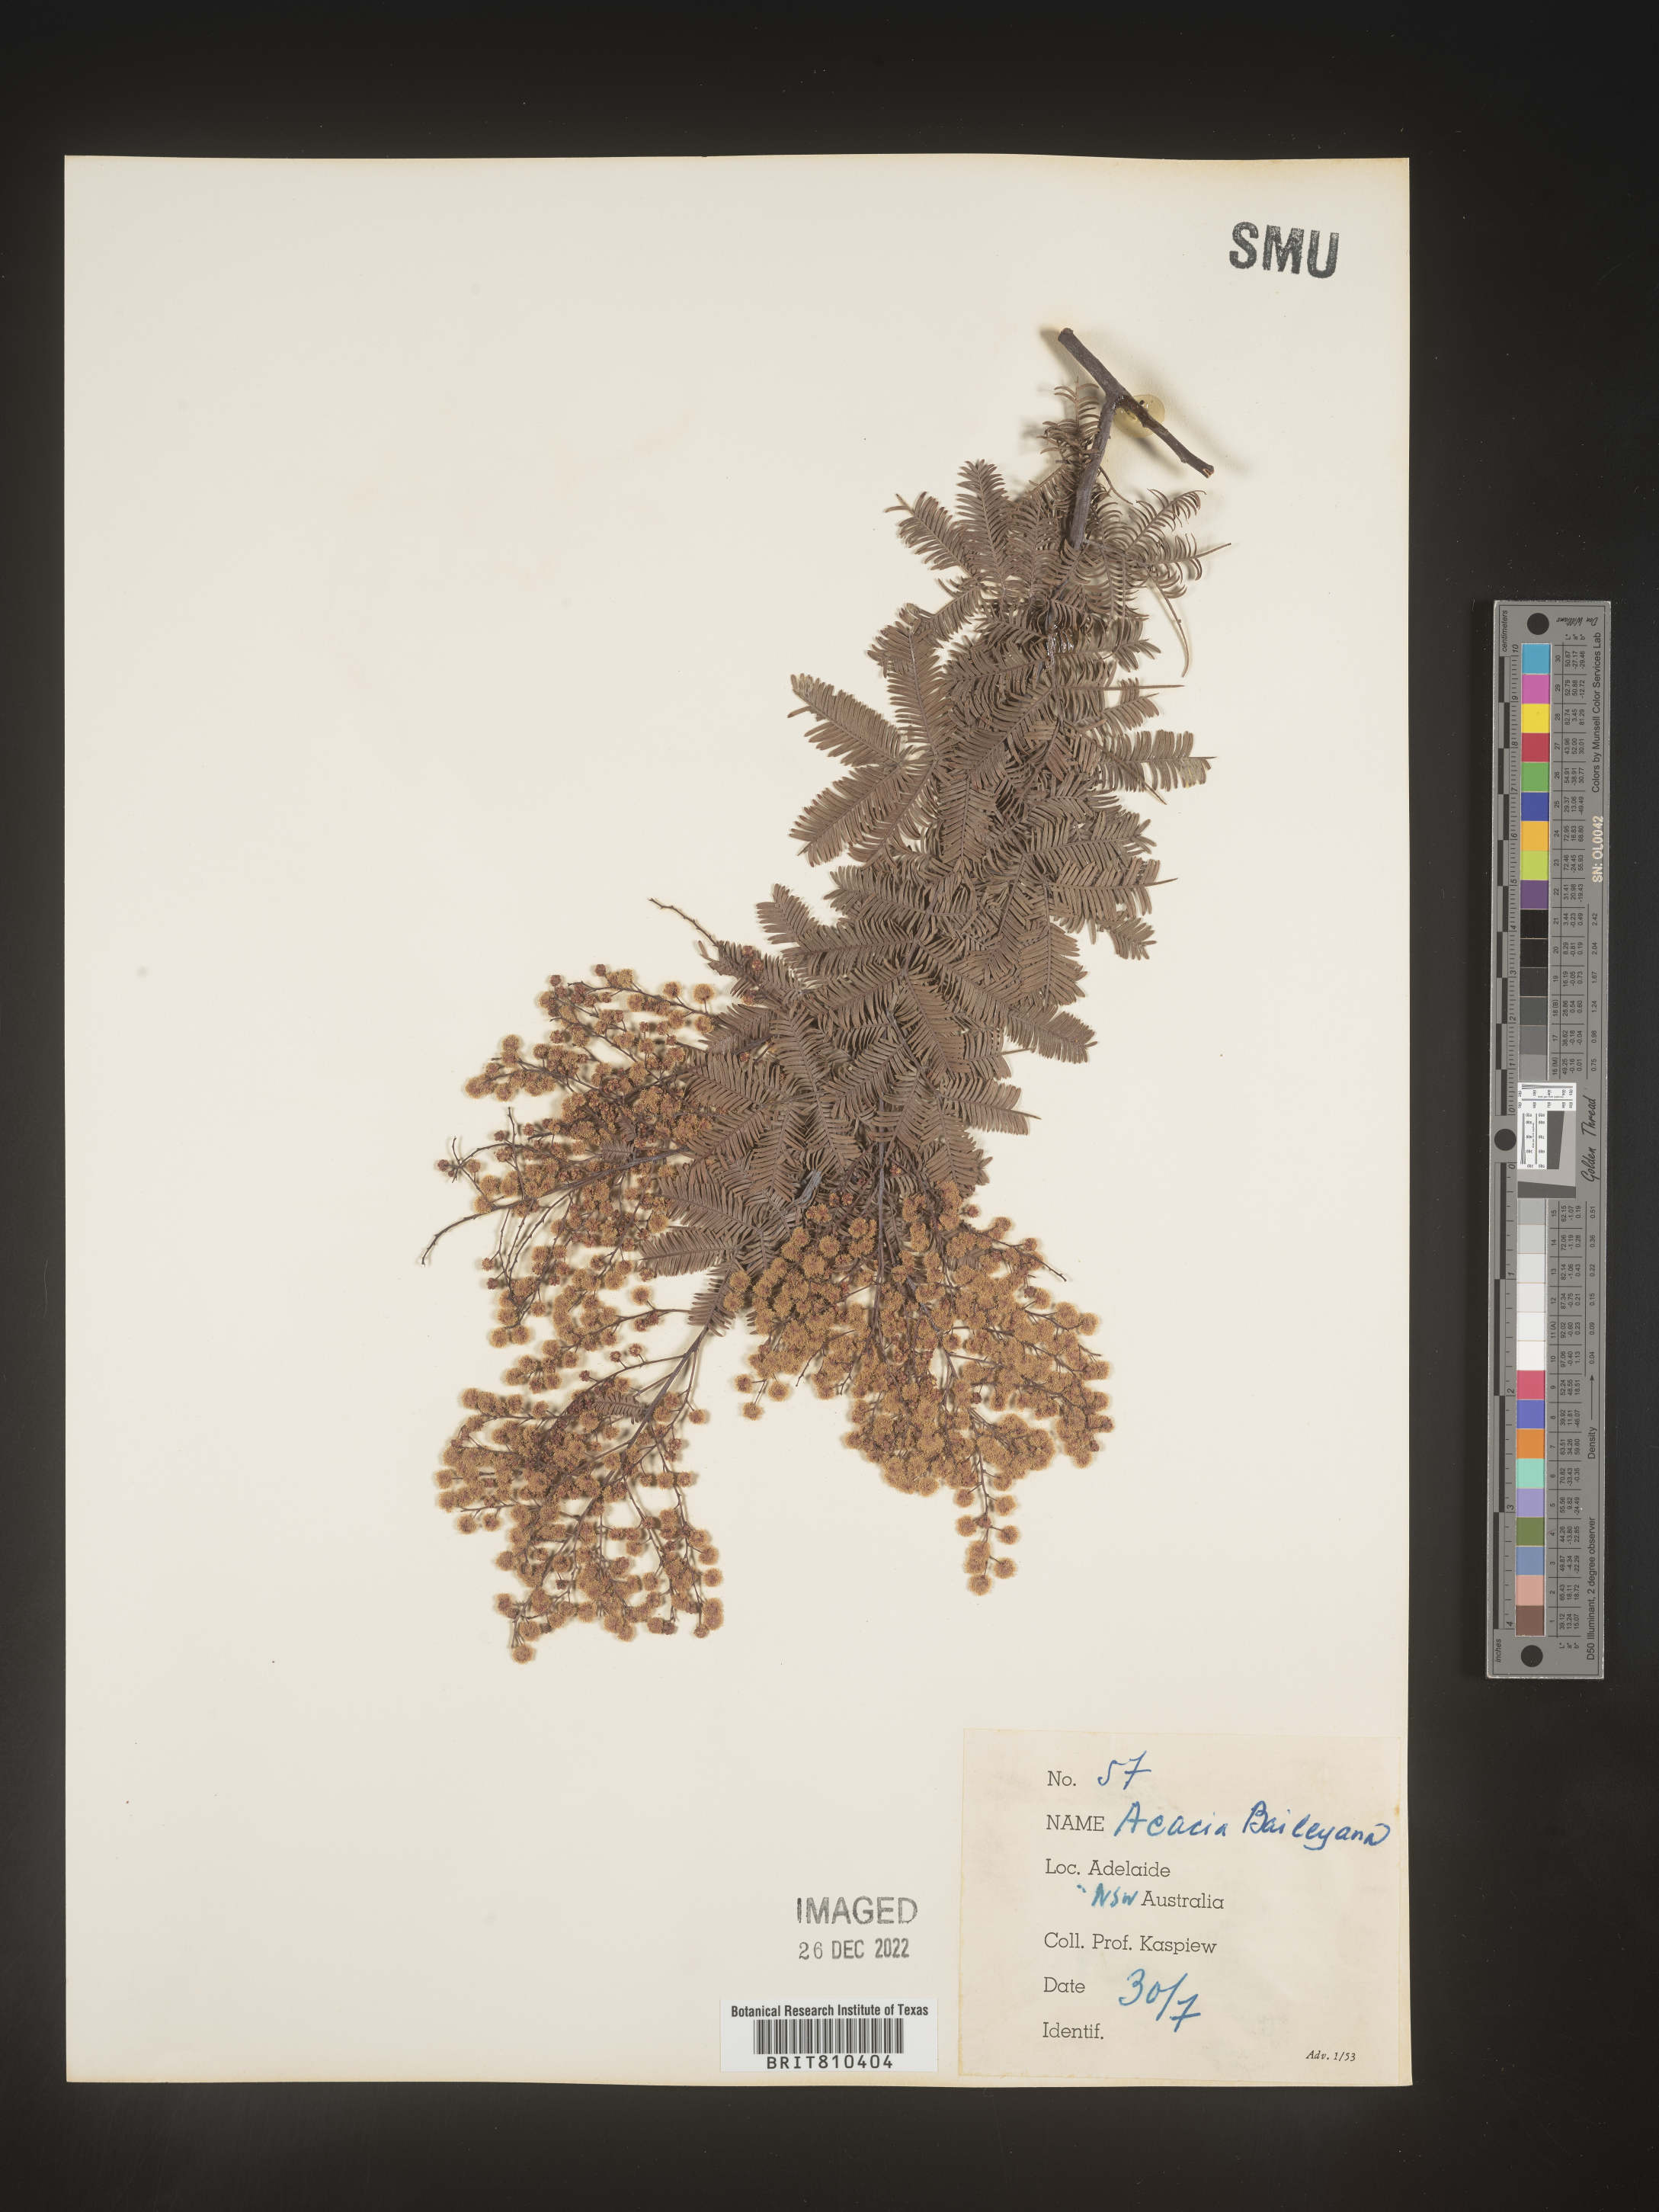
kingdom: Plantae
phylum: Tracheophyta
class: Magnoliopsida
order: Fabales
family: Fabaceae
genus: Acacia
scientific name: Acacia
